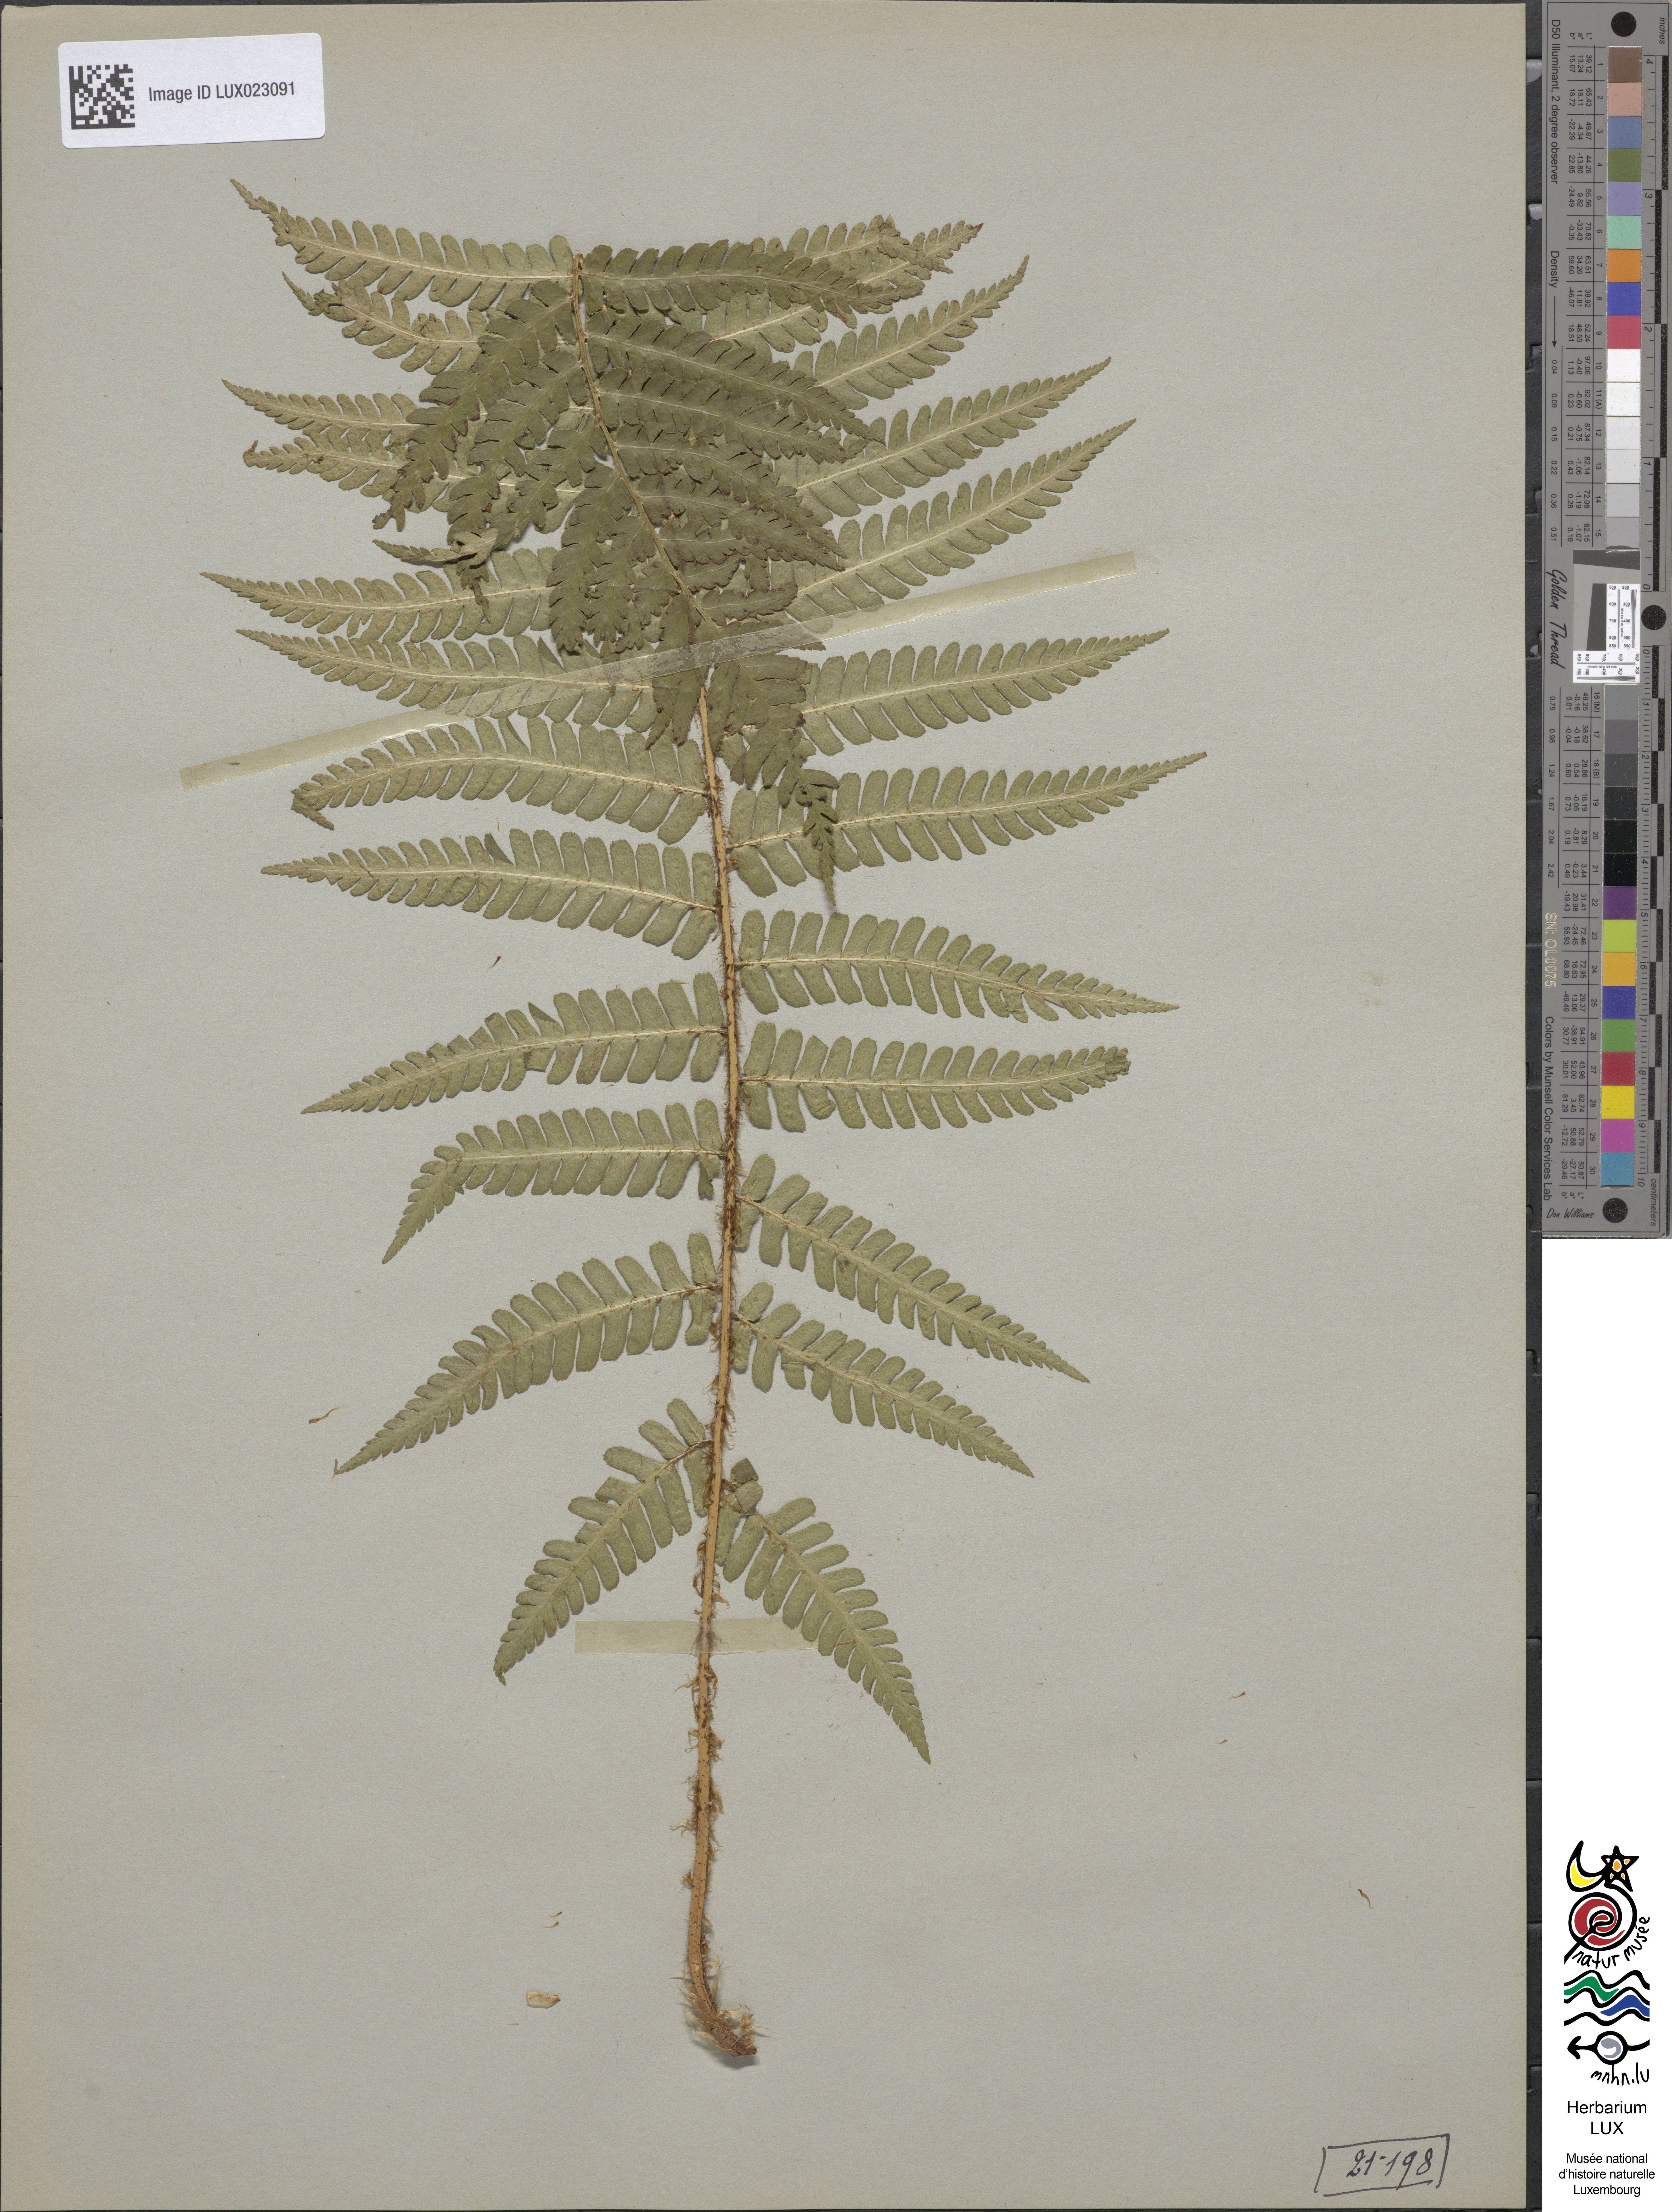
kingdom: Plantae
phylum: Tracheophyta
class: Polypodiopsida
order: Polypodiales
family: Dryopteridaceae
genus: Dryopteris
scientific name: Dryopteris borreri
